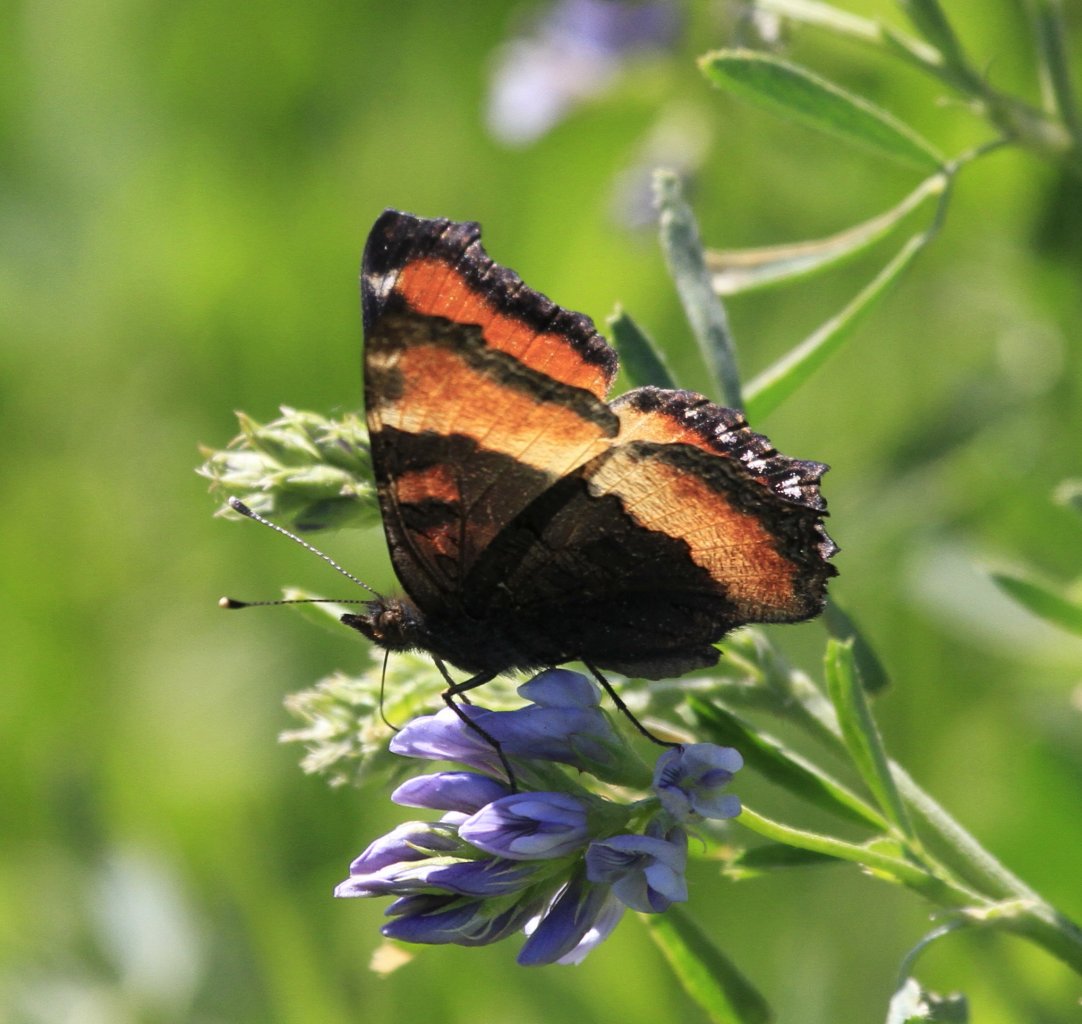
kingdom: Animalia
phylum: Arthropoda
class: Insecta
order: Lepidoptera
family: Nymphalidae
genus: Aglais
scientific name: Aglais milberti
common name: Milbert's Tortoiseshell
